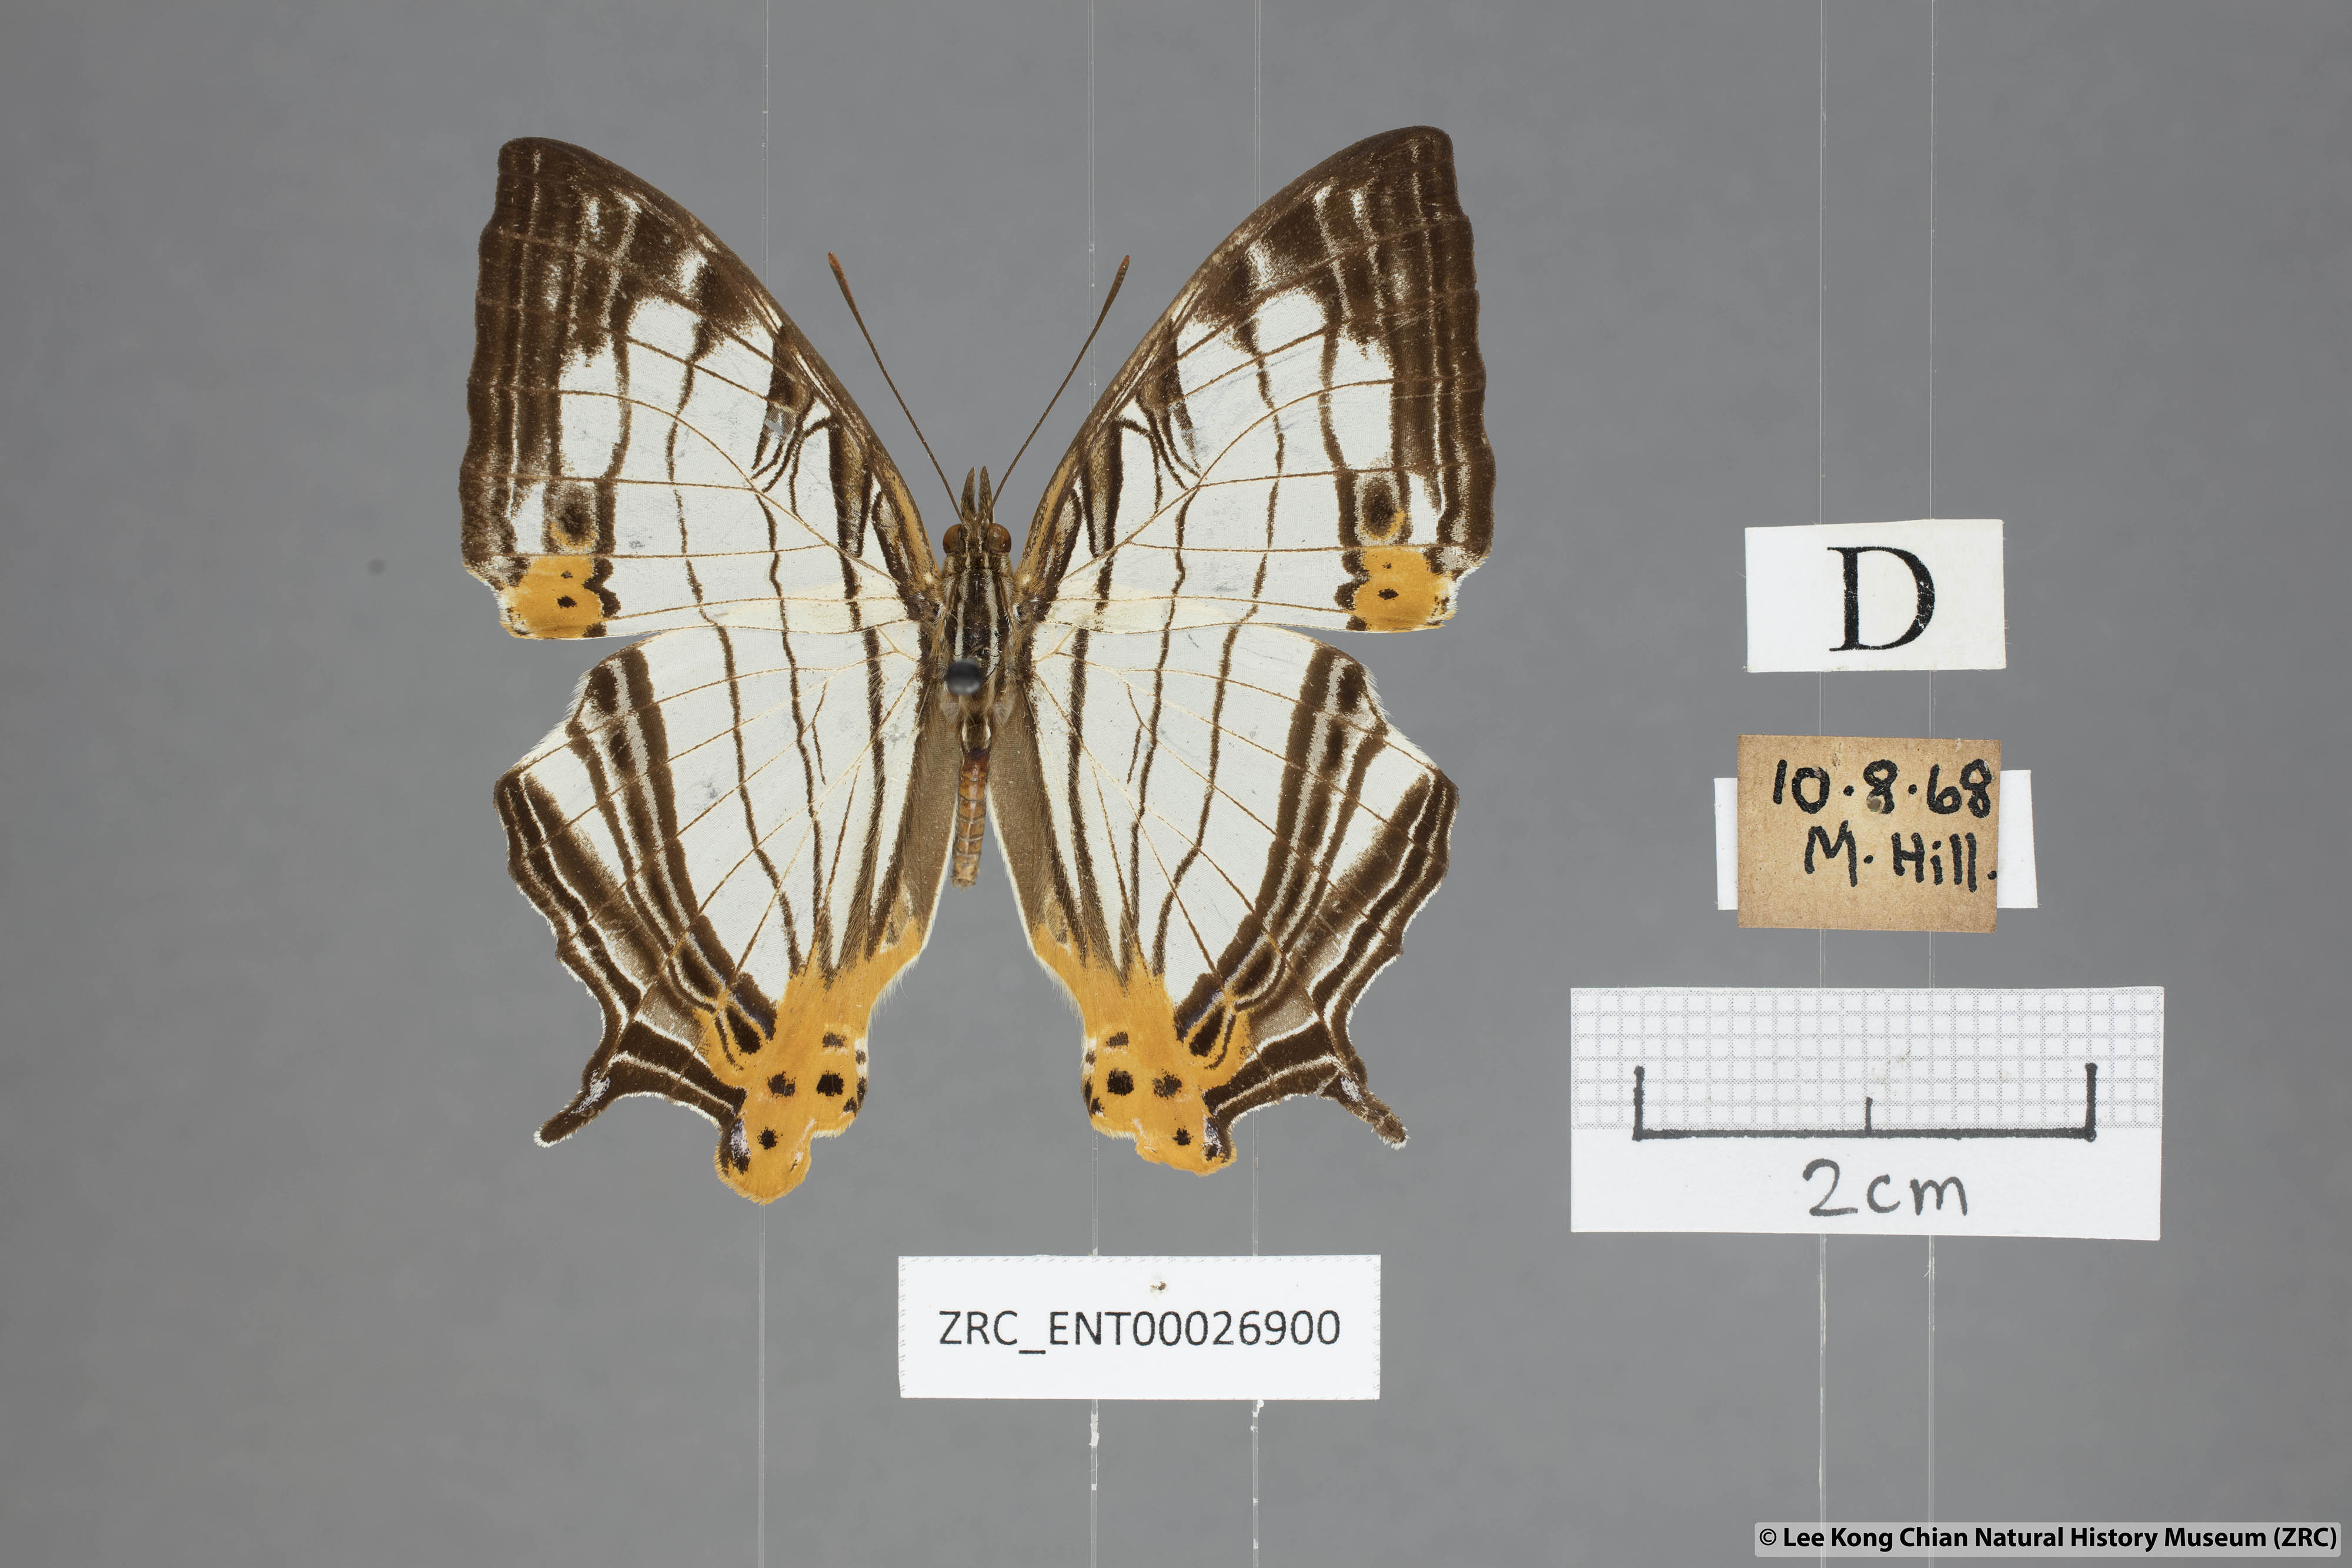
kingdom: Animalia
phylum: Arthropoda
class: Insecta
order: Lepidoptera
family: Nymphalidae
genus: Cyrestis
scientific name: Cyrestis maenalis
